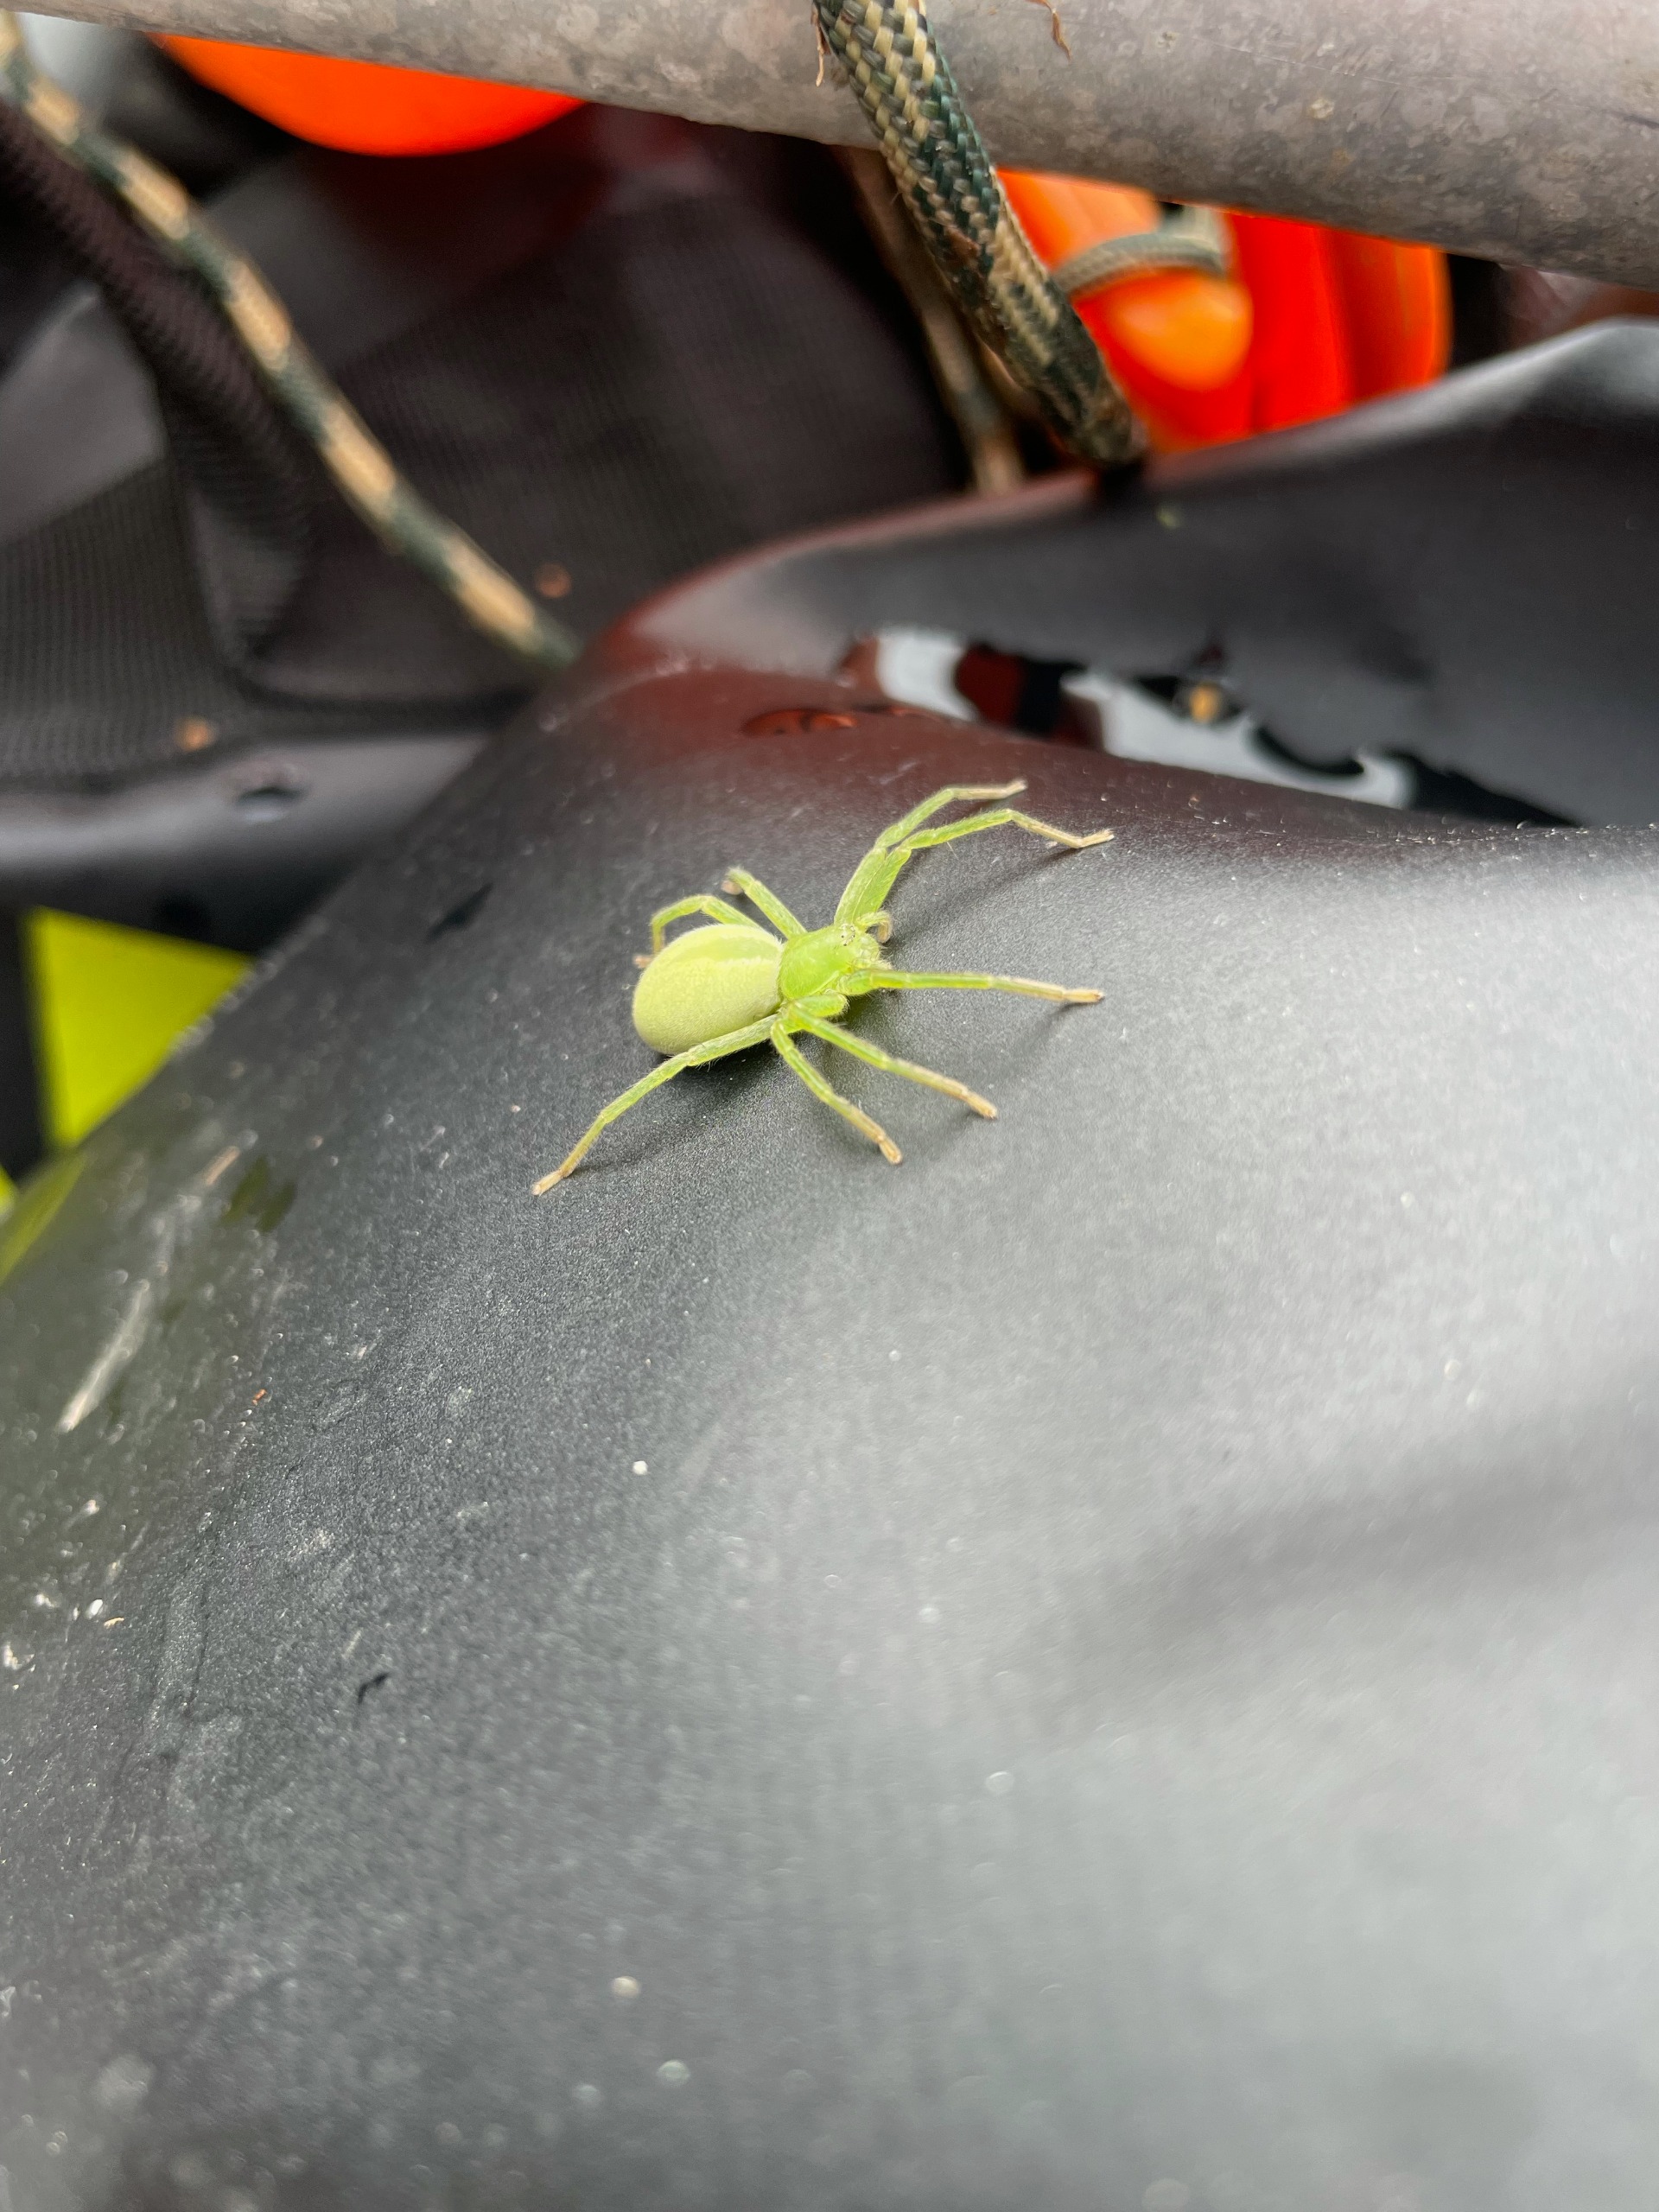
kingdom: Animalia
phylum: Arthropoda
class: Arachnida
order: Araneae
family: Sparassidae
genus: Micrommata
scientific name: Micrommata virescens
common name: Smaragdedderkop
